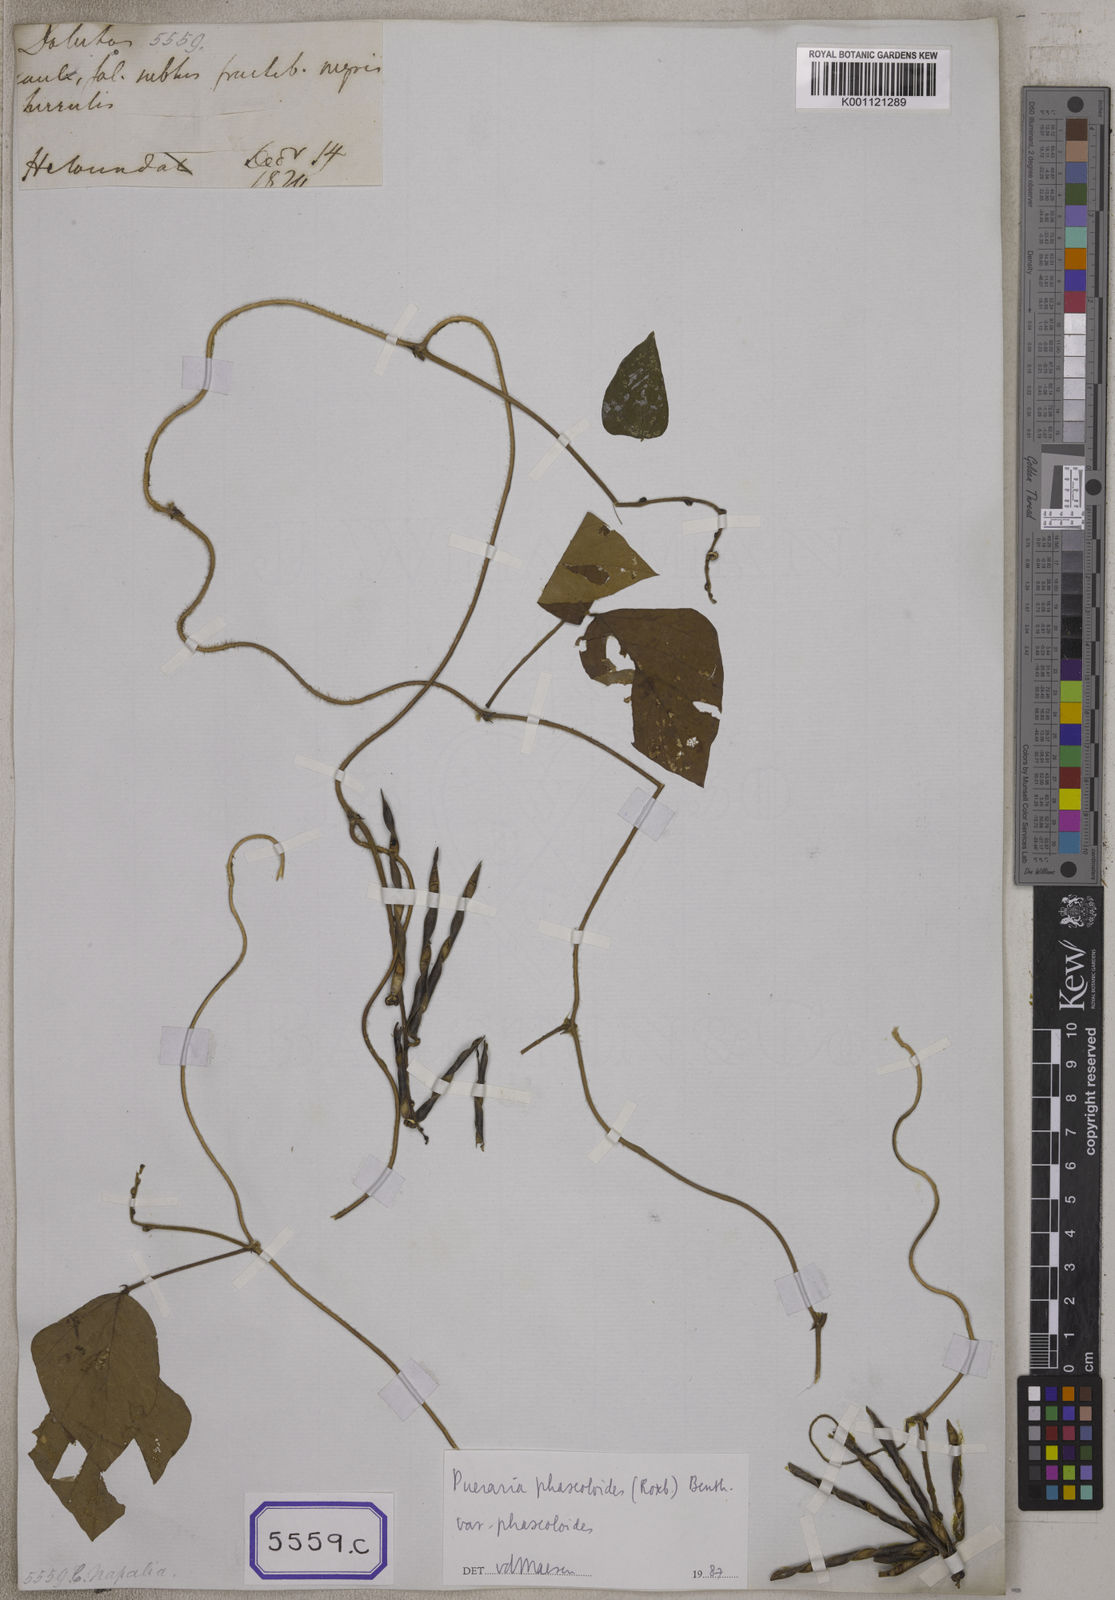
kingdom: Plantae
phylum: Tracheophyta
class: Magnoliopsida
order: Fabales
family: Fabaceae
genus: Neustanthus
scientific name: Neustanthus phaseoloides
